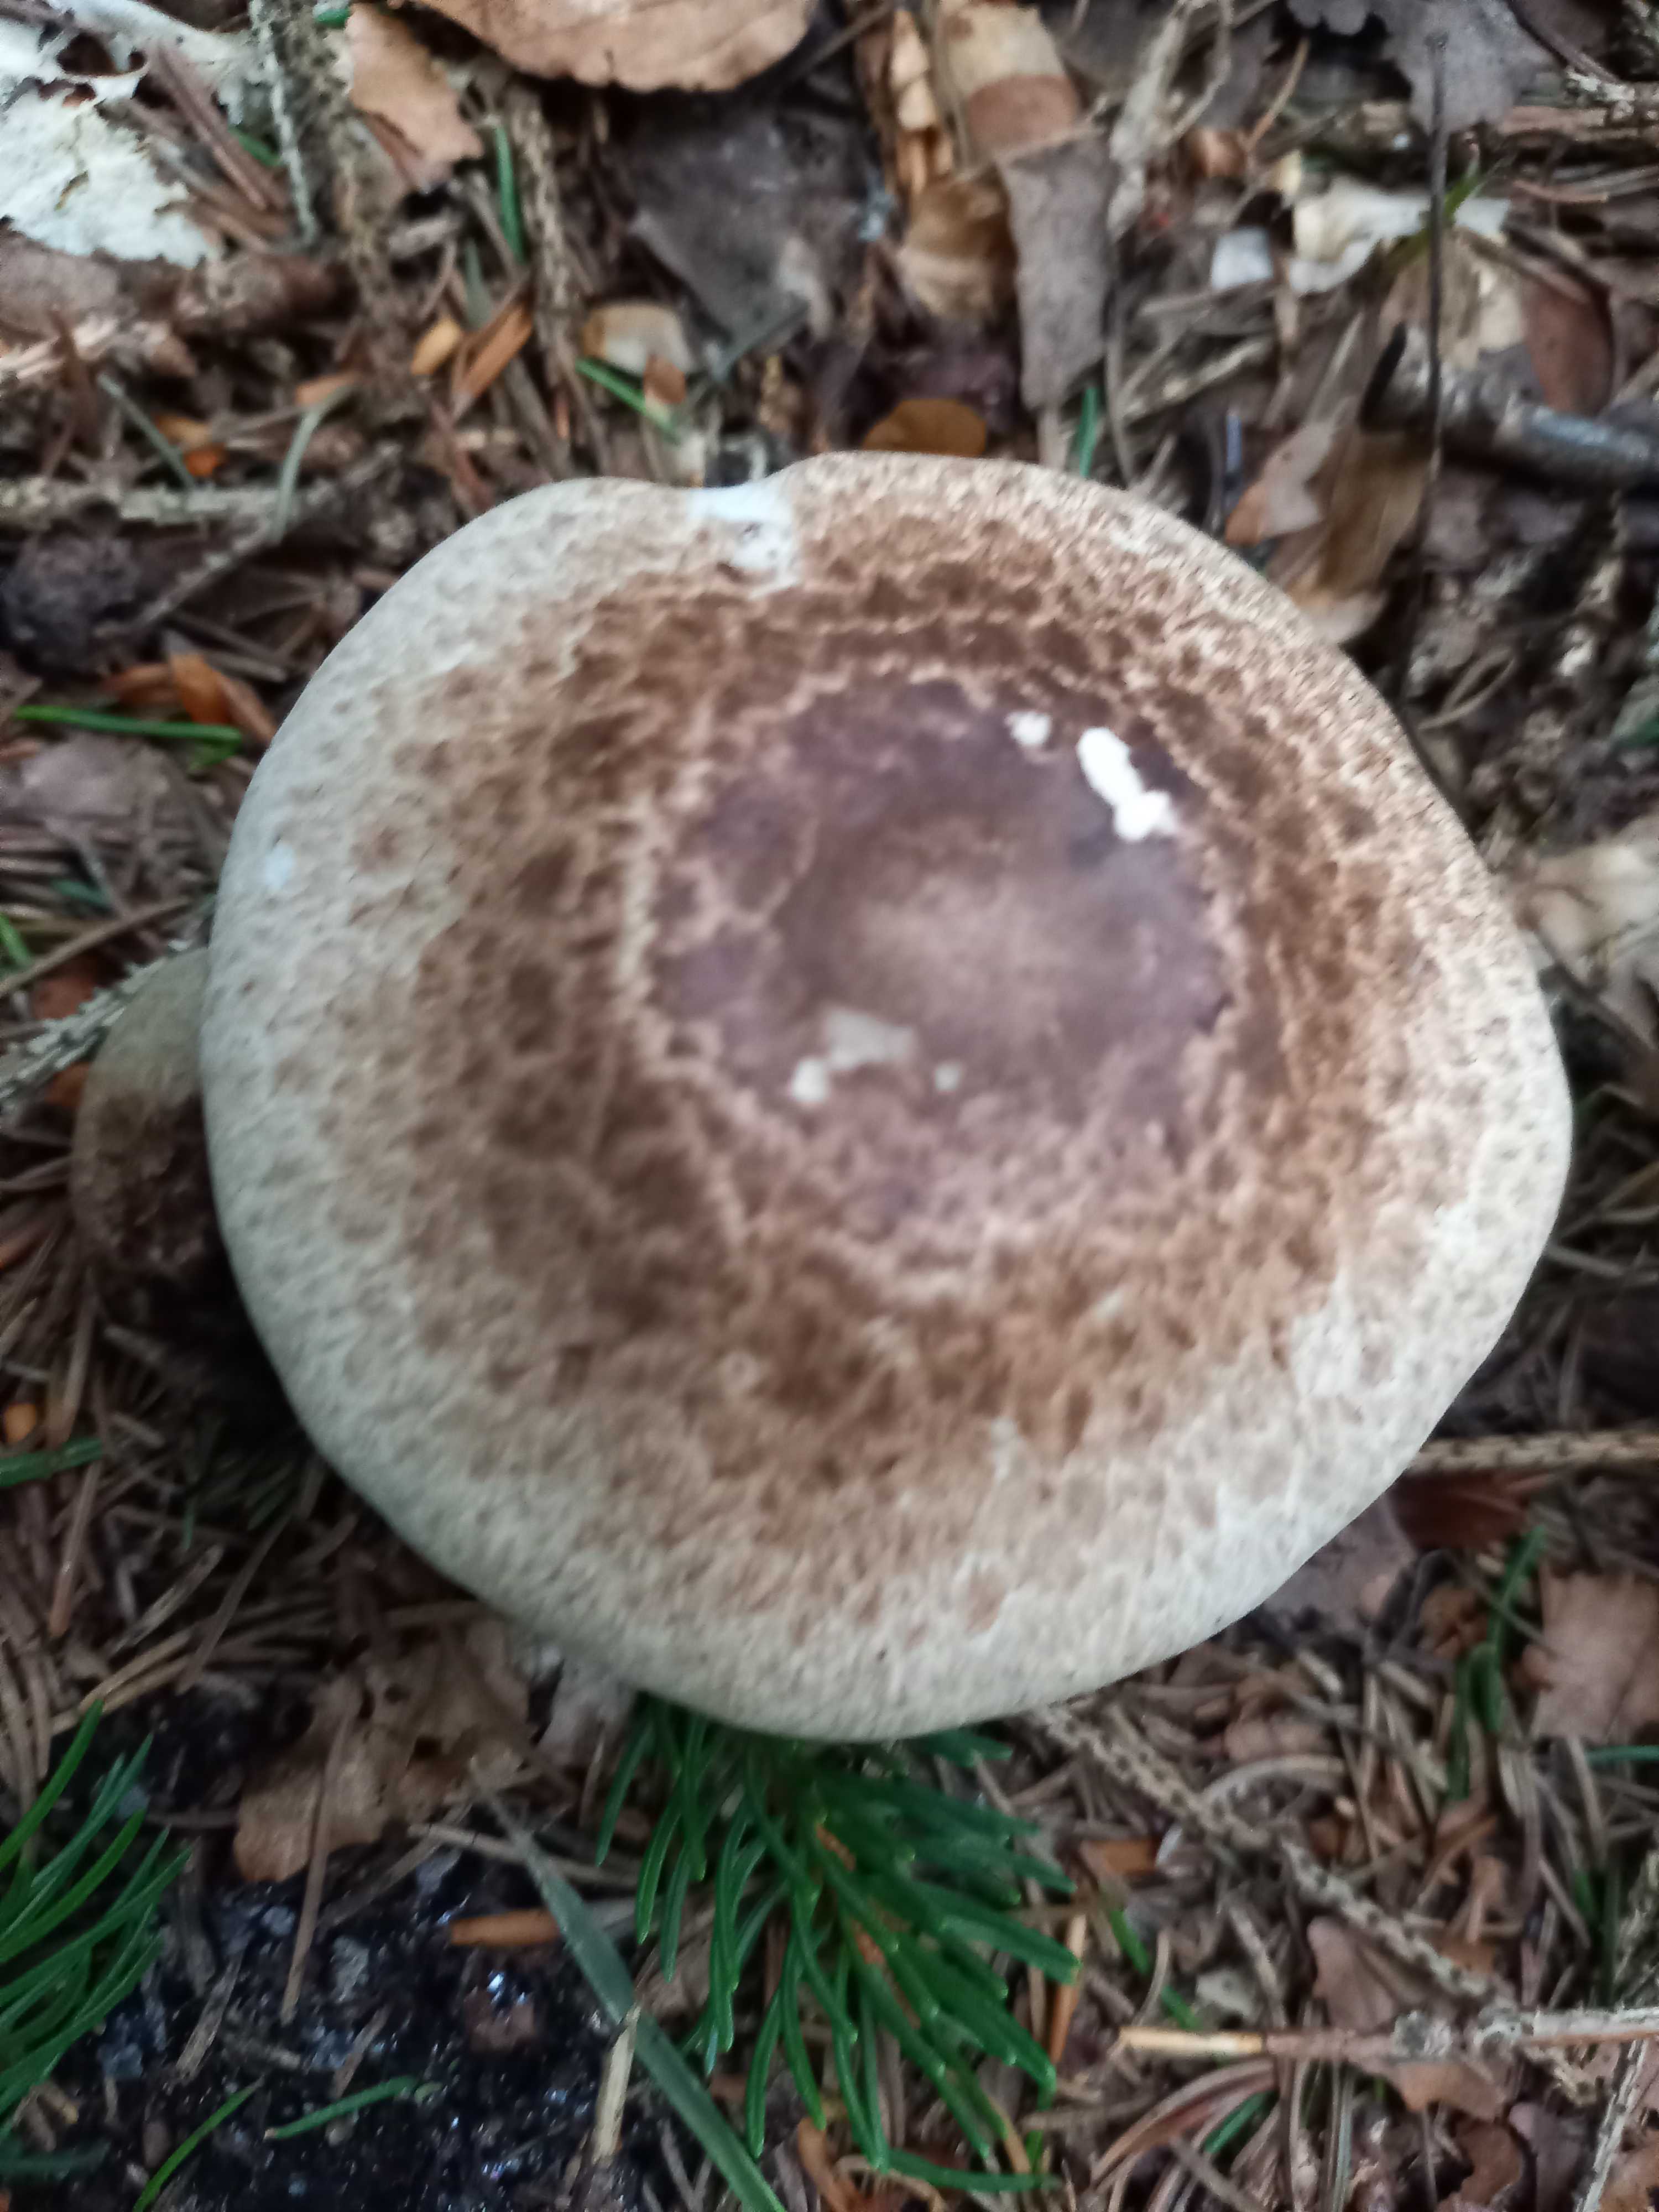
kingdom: Fungi
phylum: Basidiomycota
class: Agaricomycetes
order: Agaricales
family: Agaricaceae
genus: Agaricus
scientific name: Agaricus impudicus
